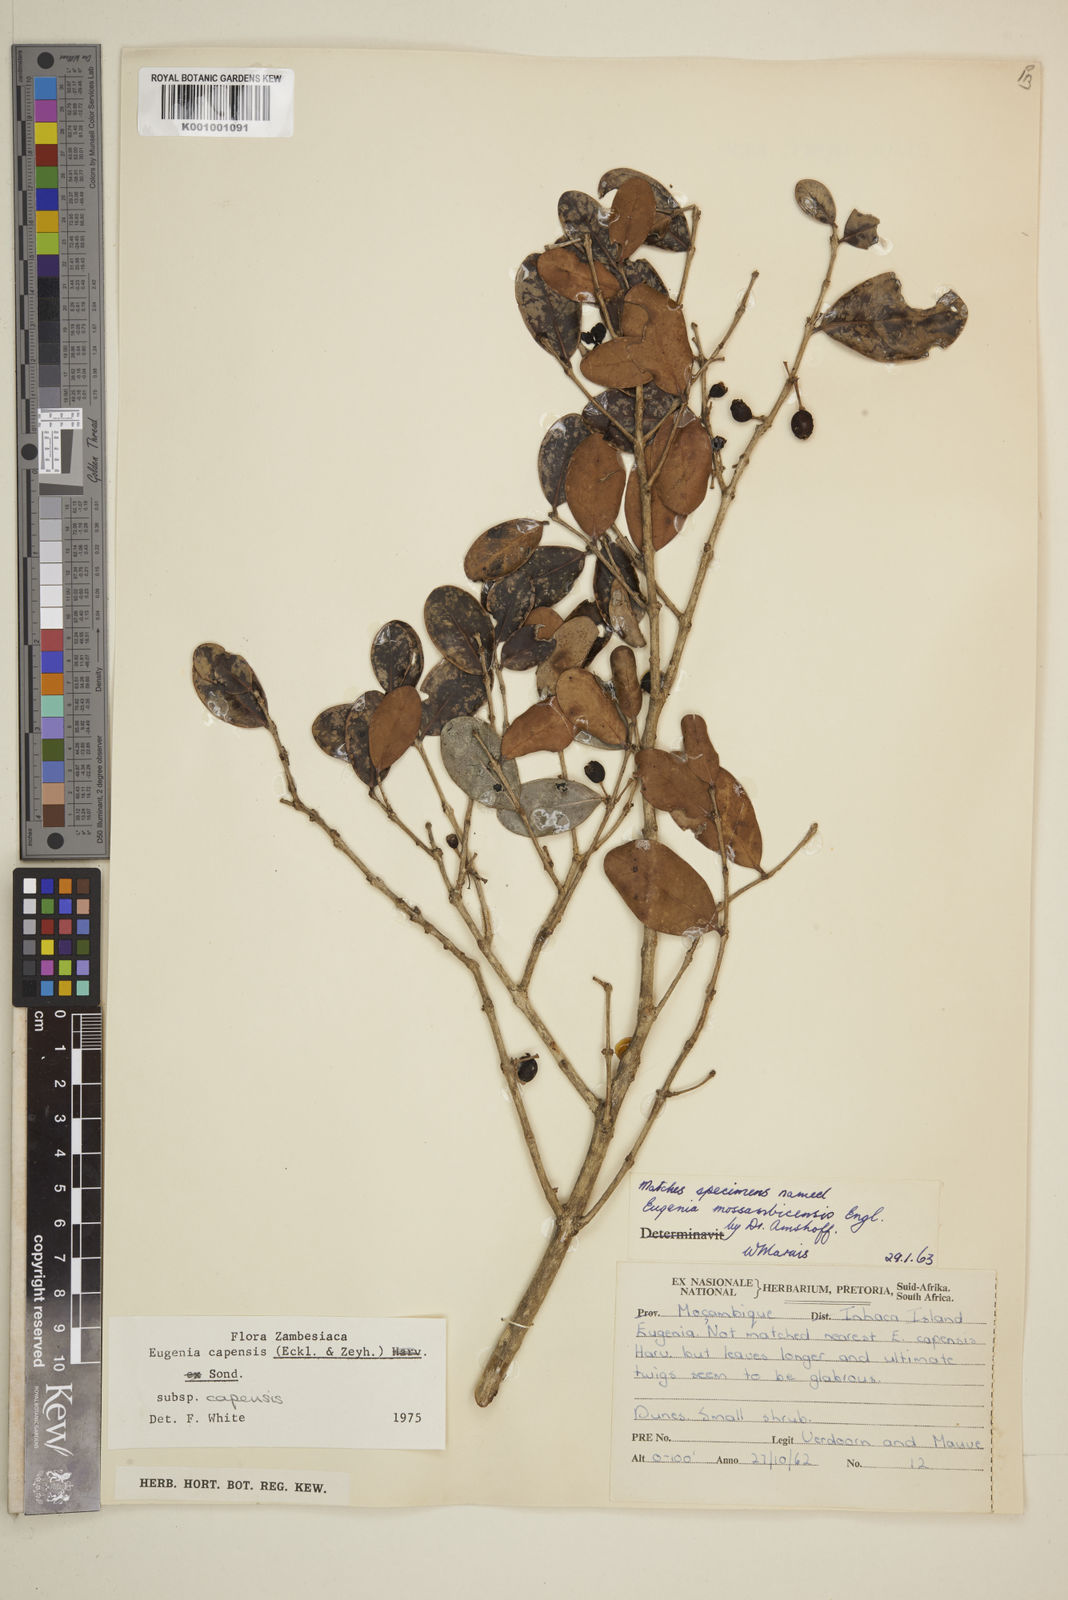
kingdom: Plantae
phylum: Tracheophyta
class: Magnoliopsida
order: Myrtales
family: Myrtaceae
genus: Eugenia
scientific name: Eugenia capensis
